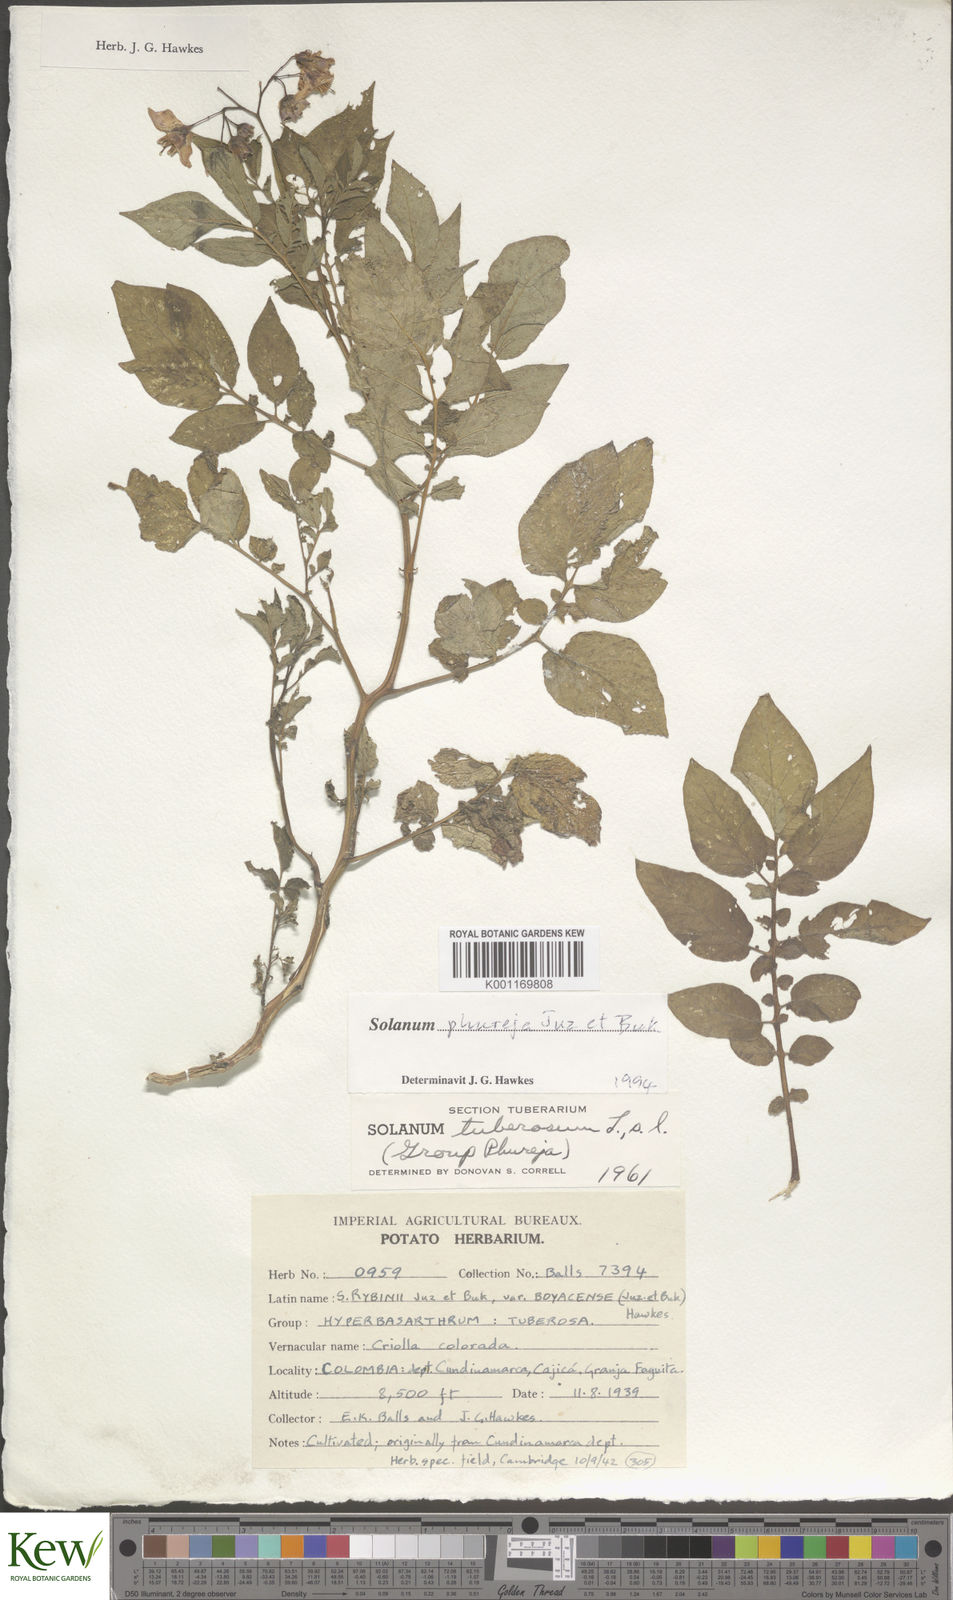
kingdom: Plantae
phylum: Tracheophyta
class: Magnoliopsida
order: Solanales
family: Solanaceae
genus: Solanum
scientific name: Solanum tuberosum
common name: Potato
